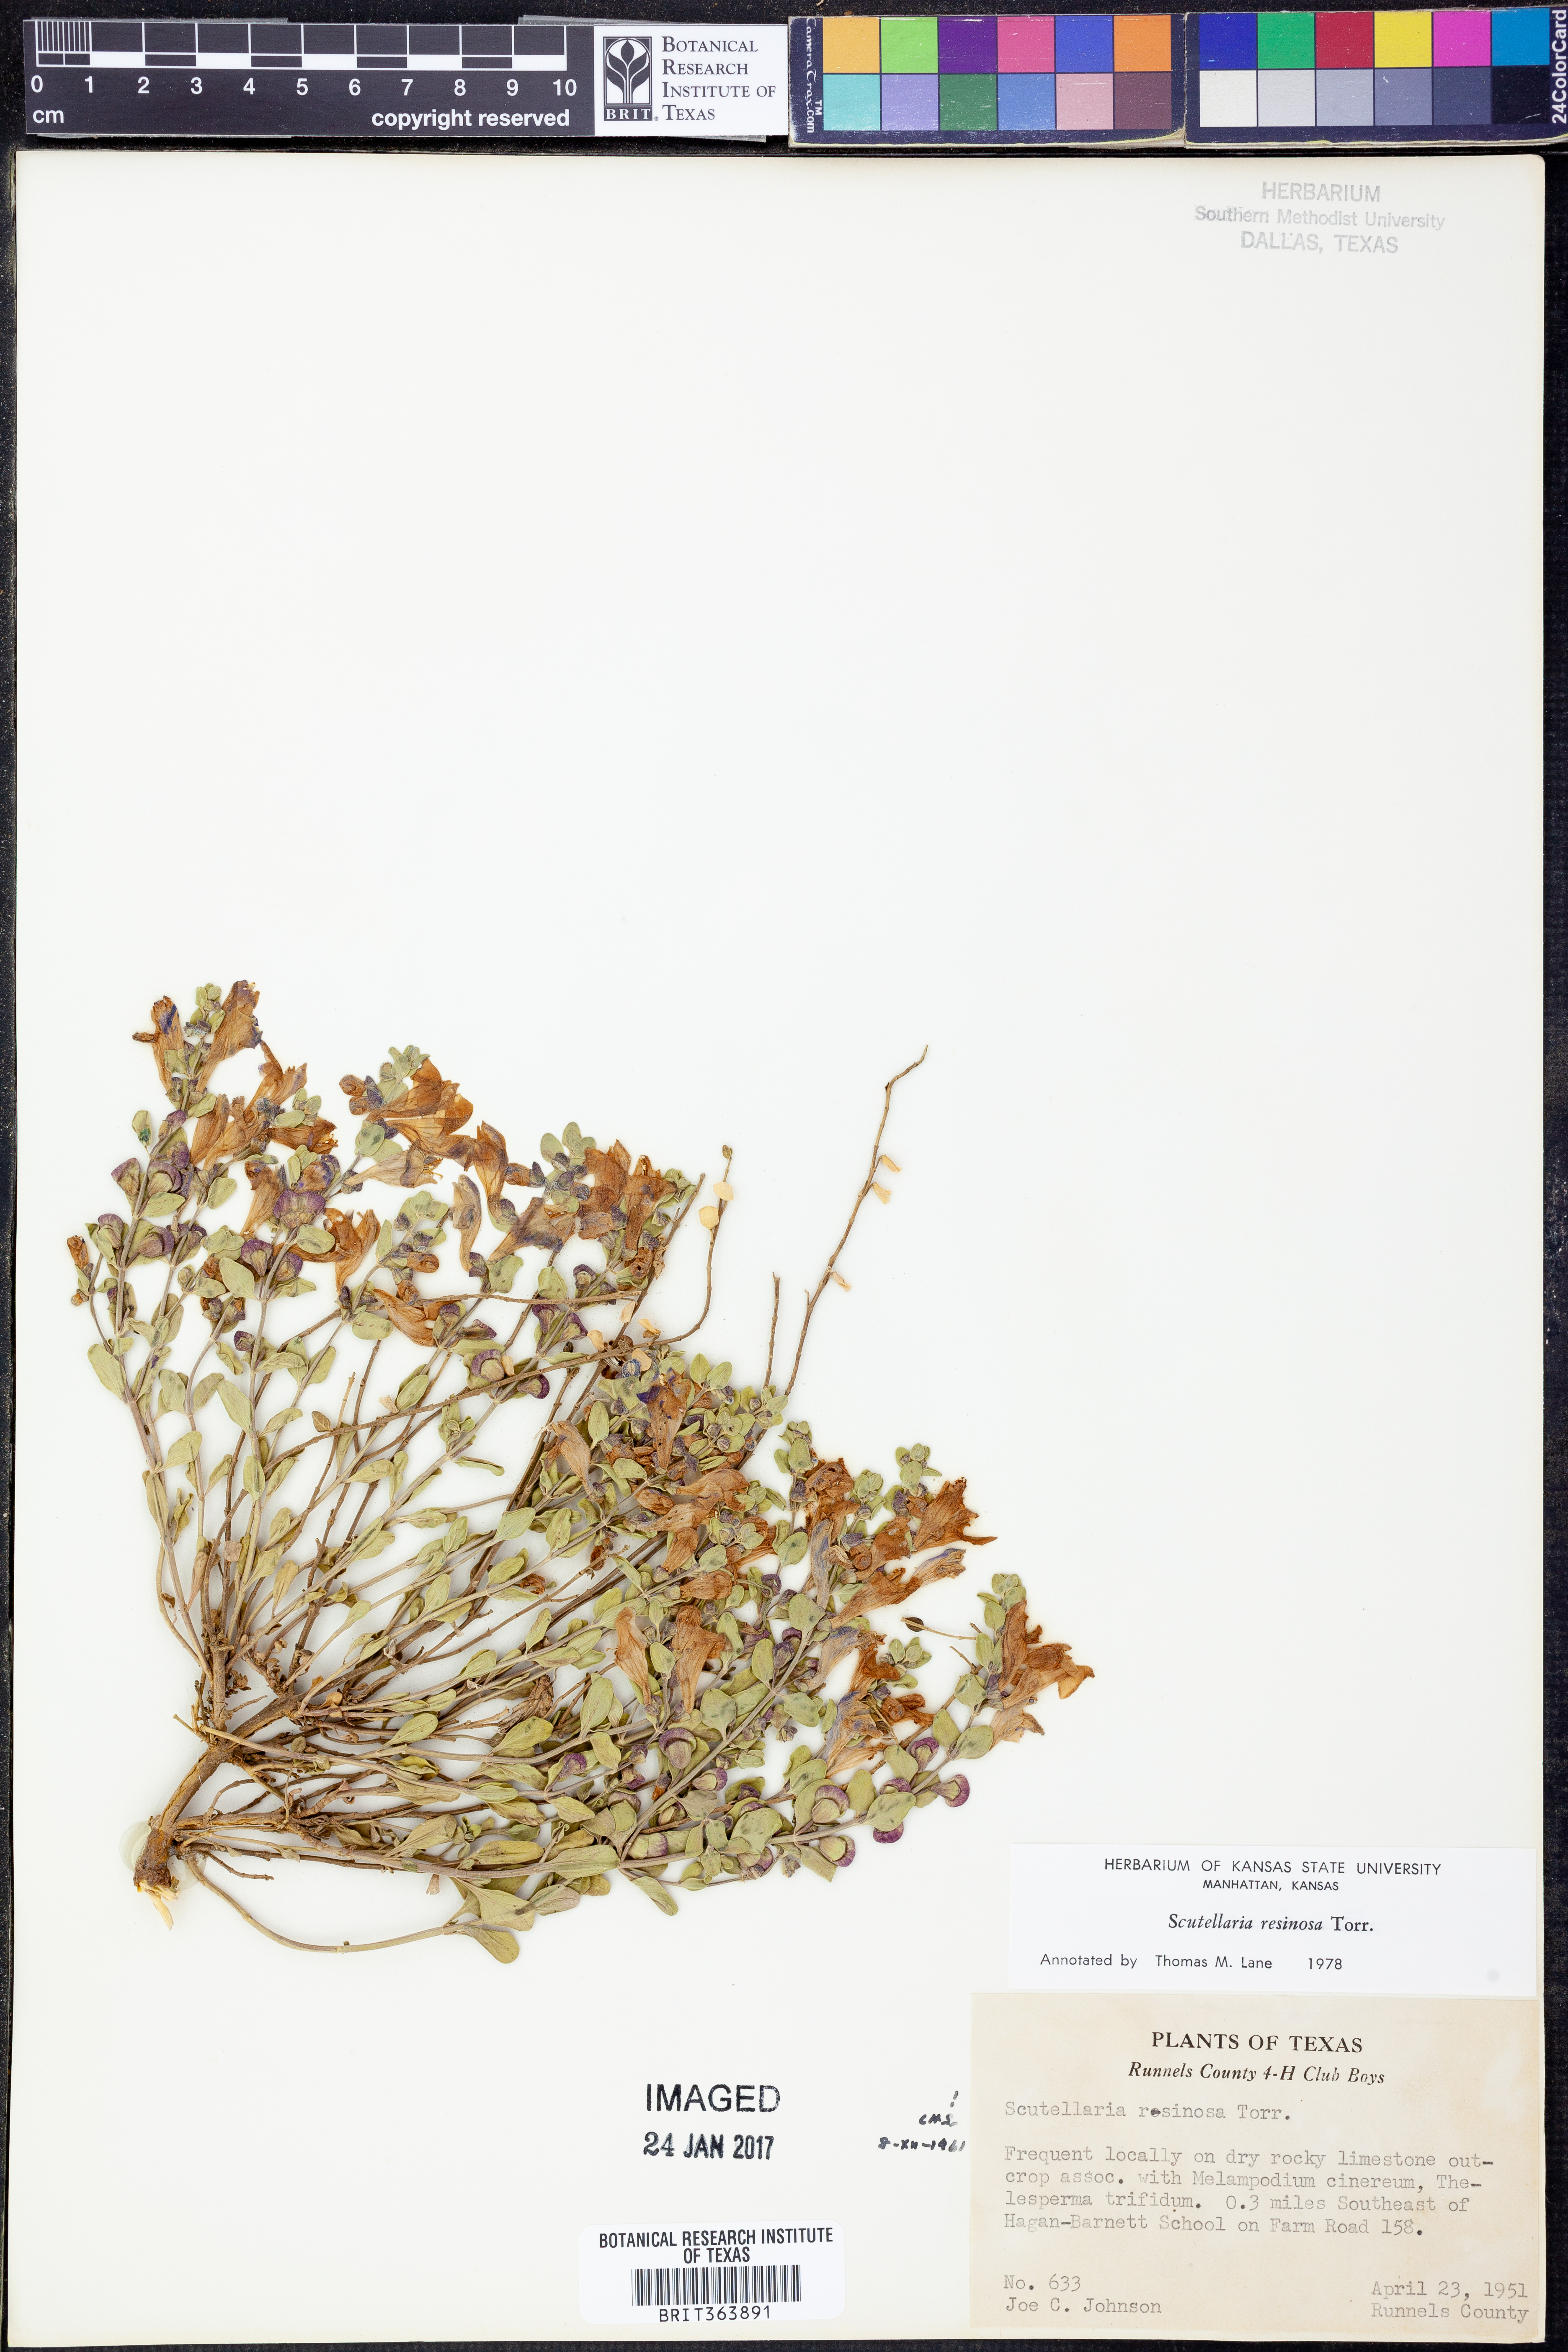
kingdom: Plantae
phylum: Tracheophyta
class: Magnoliopsida
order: Lamiales
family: Lamiaceae
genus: Scutellaria
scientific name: Scutellaria resinosa
